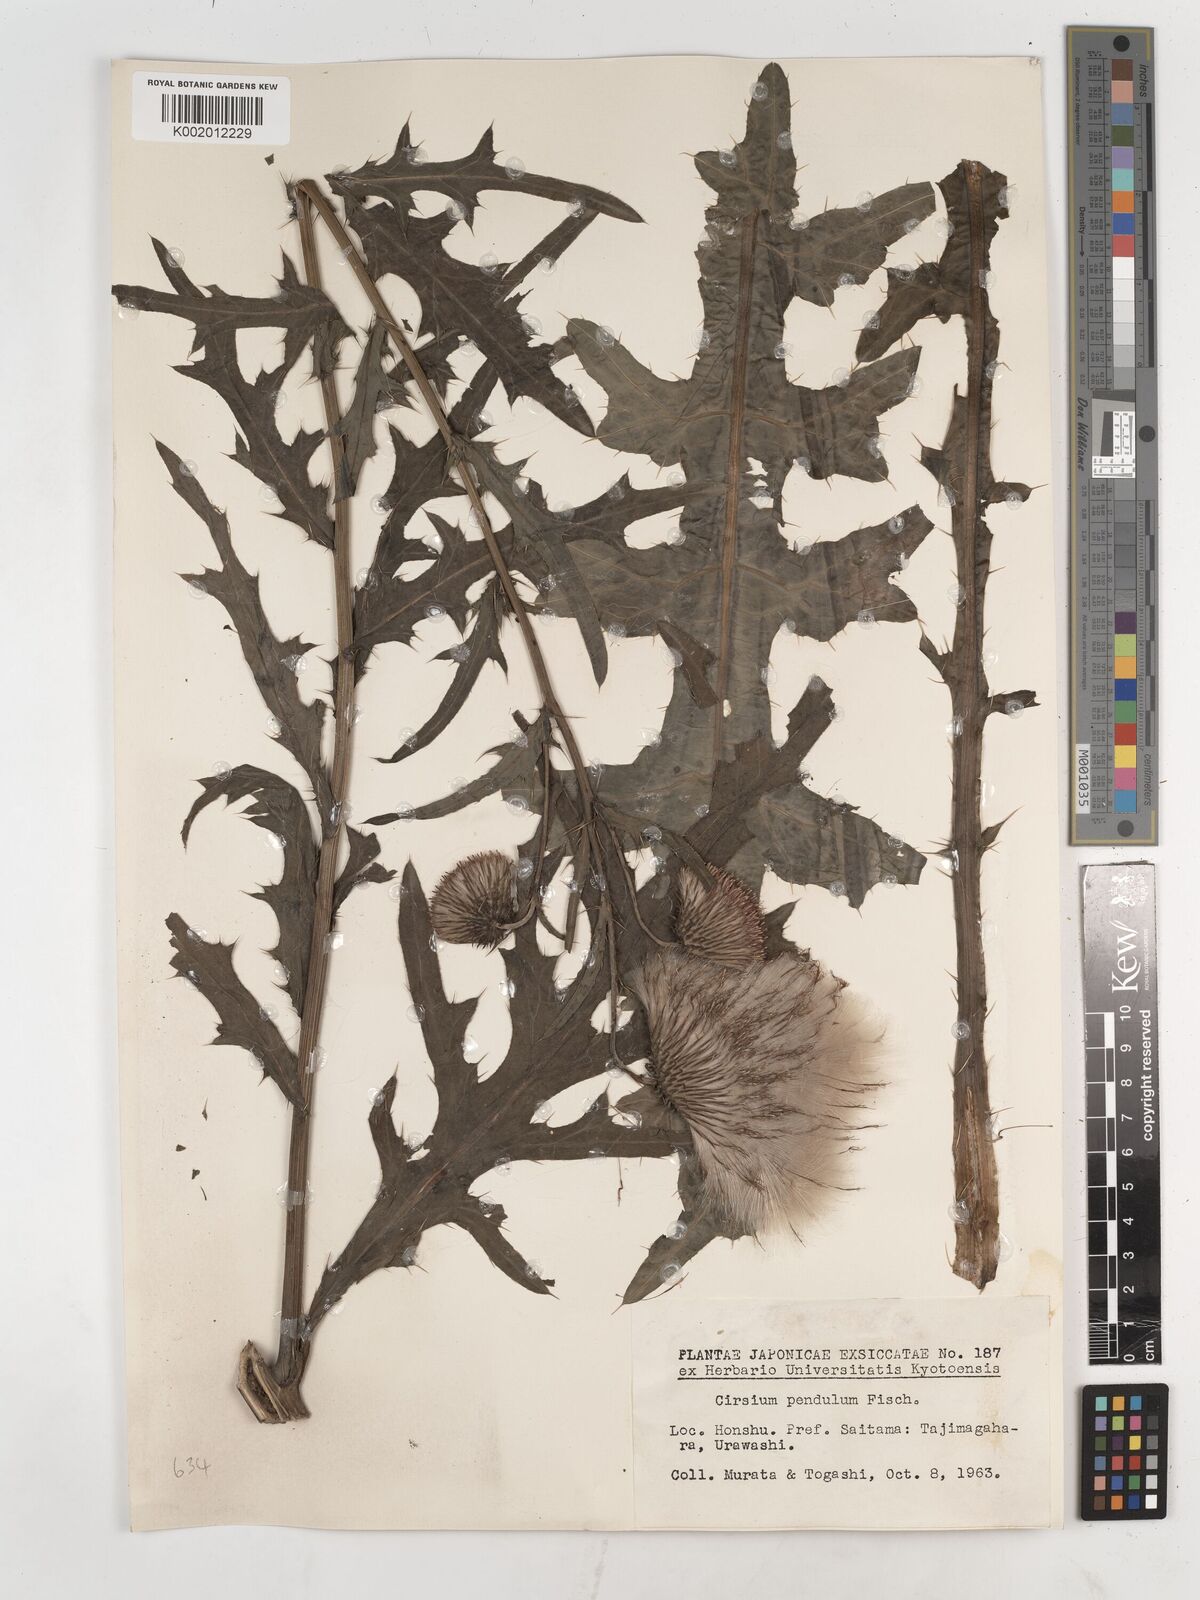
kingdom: Plantae
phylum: Tracheophyta
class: Magnoliopsida
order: Asterales
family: Asteraceae
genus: Cirsium
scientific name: Cirsium pendulum
